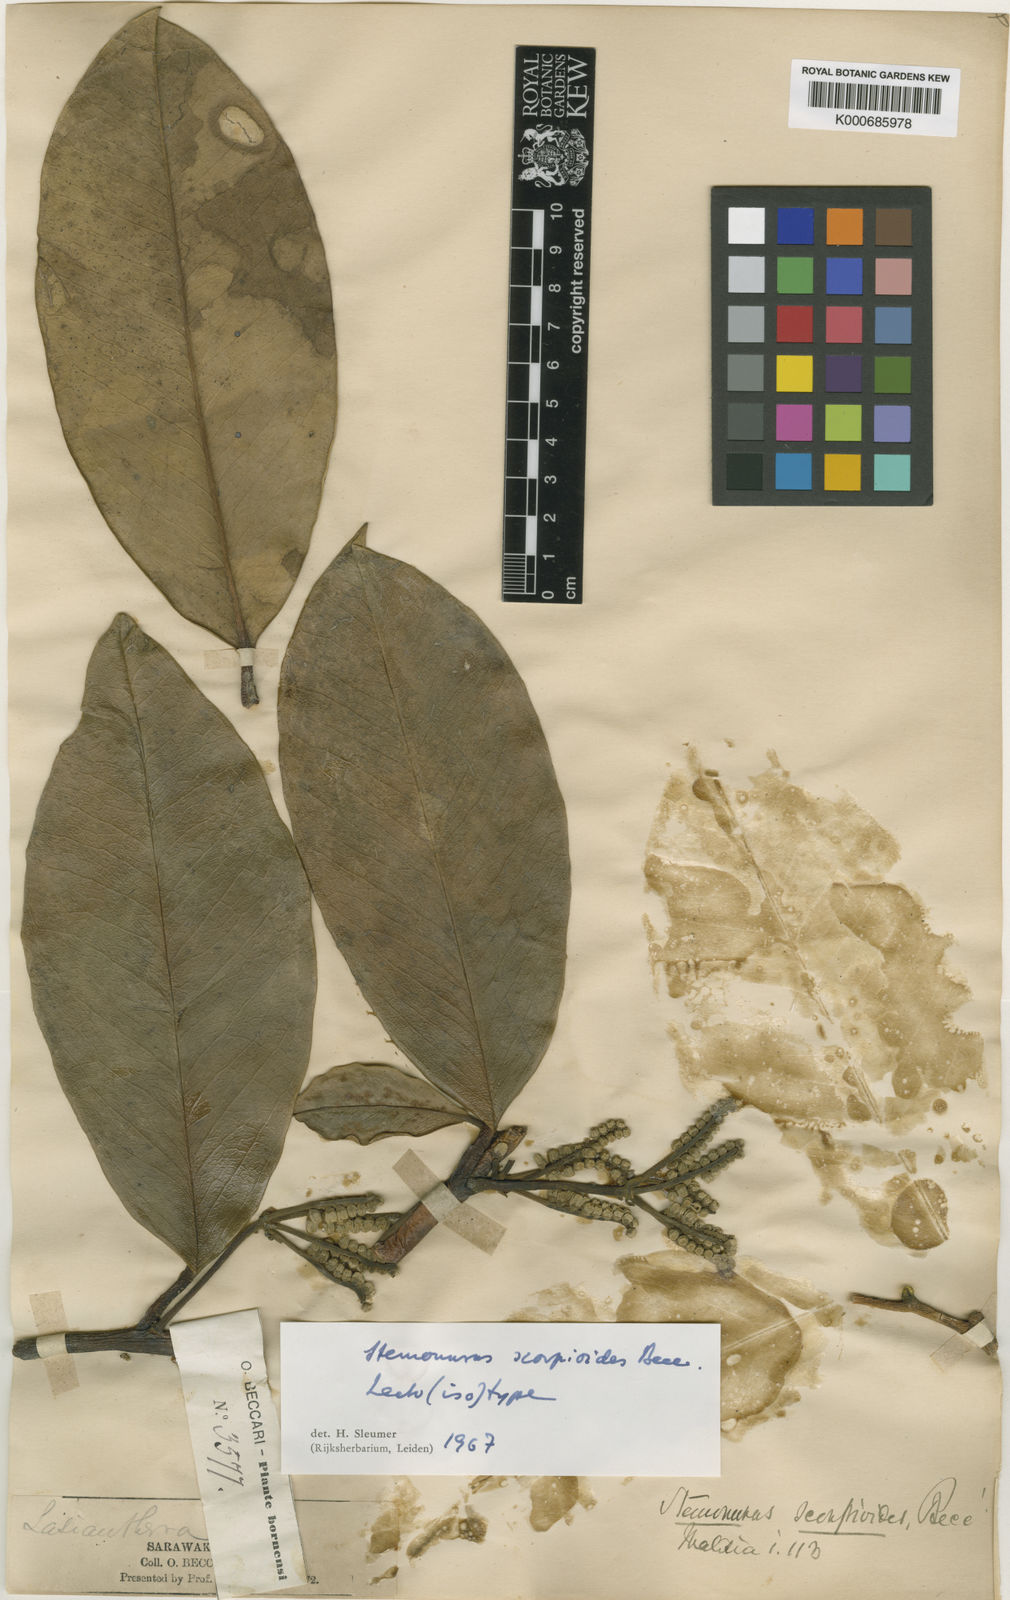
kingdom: Plantae
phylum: Tracheophyta
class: Magnoliopsida
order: Cardiopteridales
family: Stemonuraceae
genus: Stemonurus
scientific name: Stemonurus scorpioides
